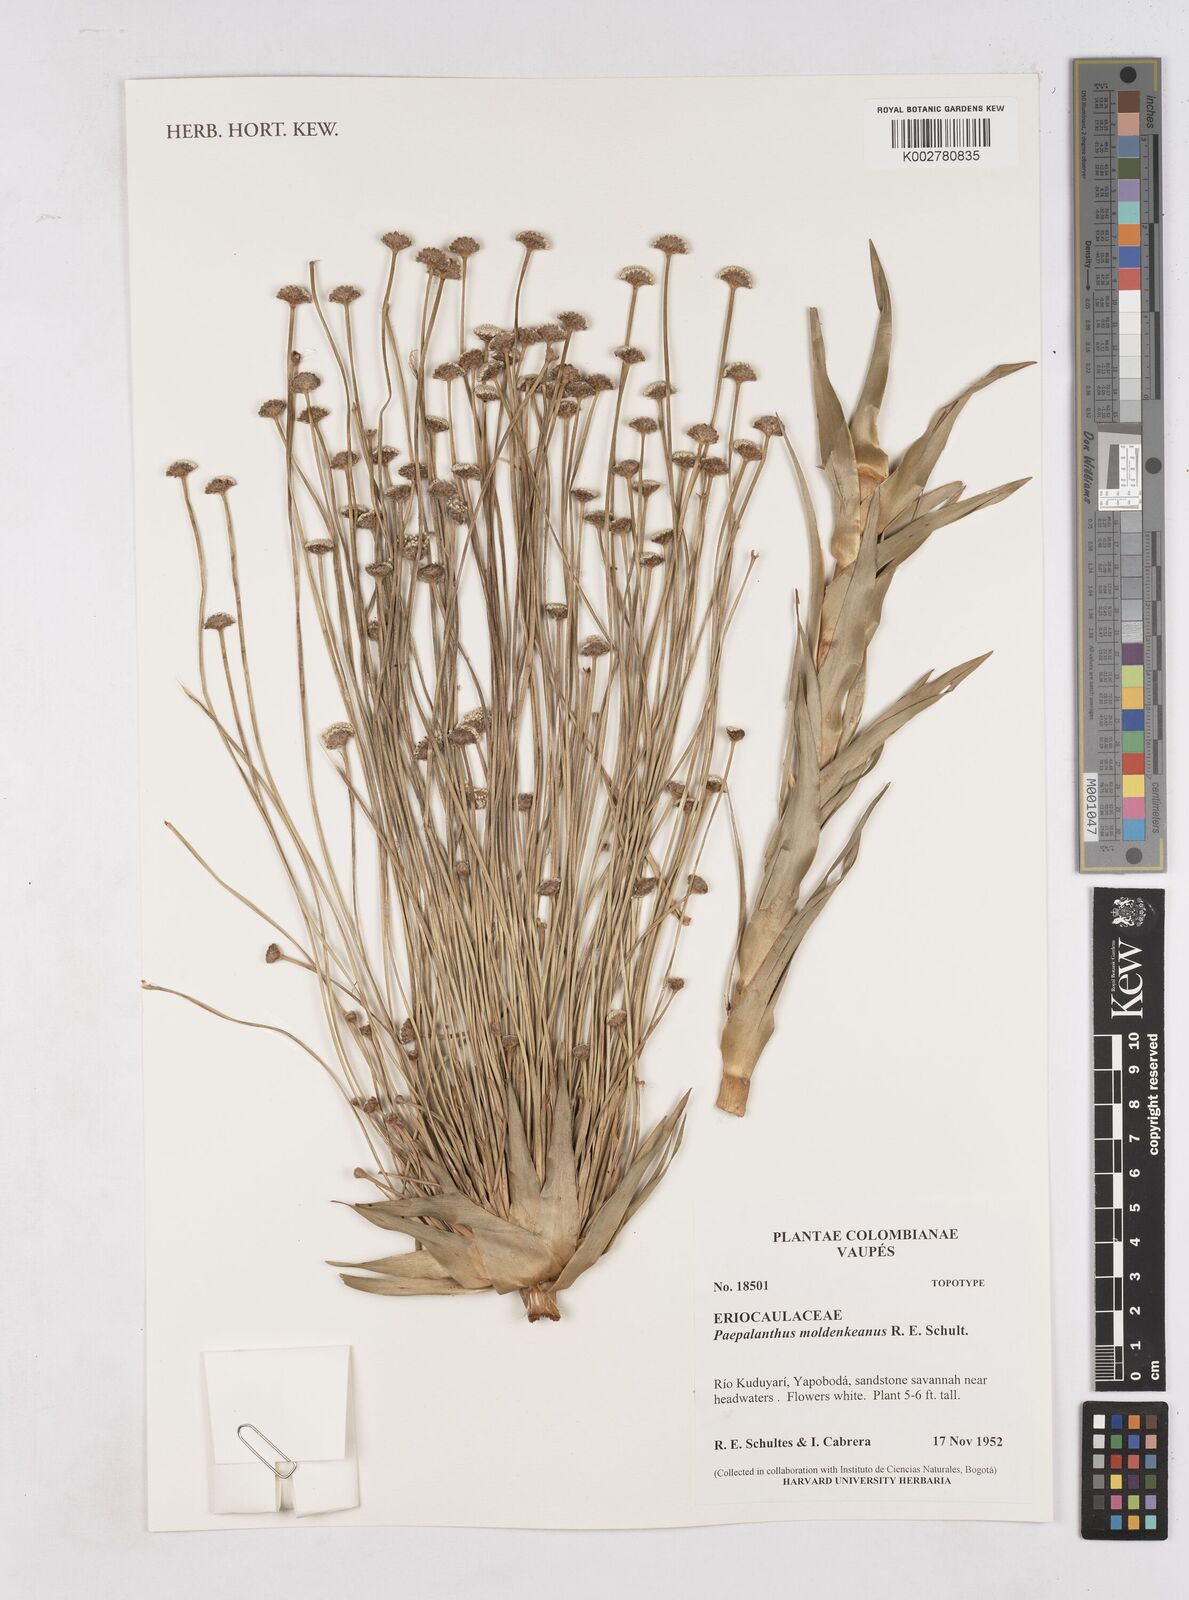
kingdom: Plantae
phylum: Tracheophyta
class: Liliopsida
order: Poales
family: Eriocaulaceae
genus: Paepalanthus
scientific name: Paepalanthus chiquitensis
